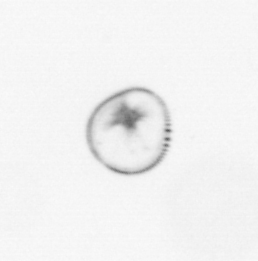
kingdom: Chromista
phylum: Myzozoa
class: Dinophyceae
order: Noctilucales
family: Noctilucaceae
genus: Noctiluca
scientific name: Noctiluca scintillans
